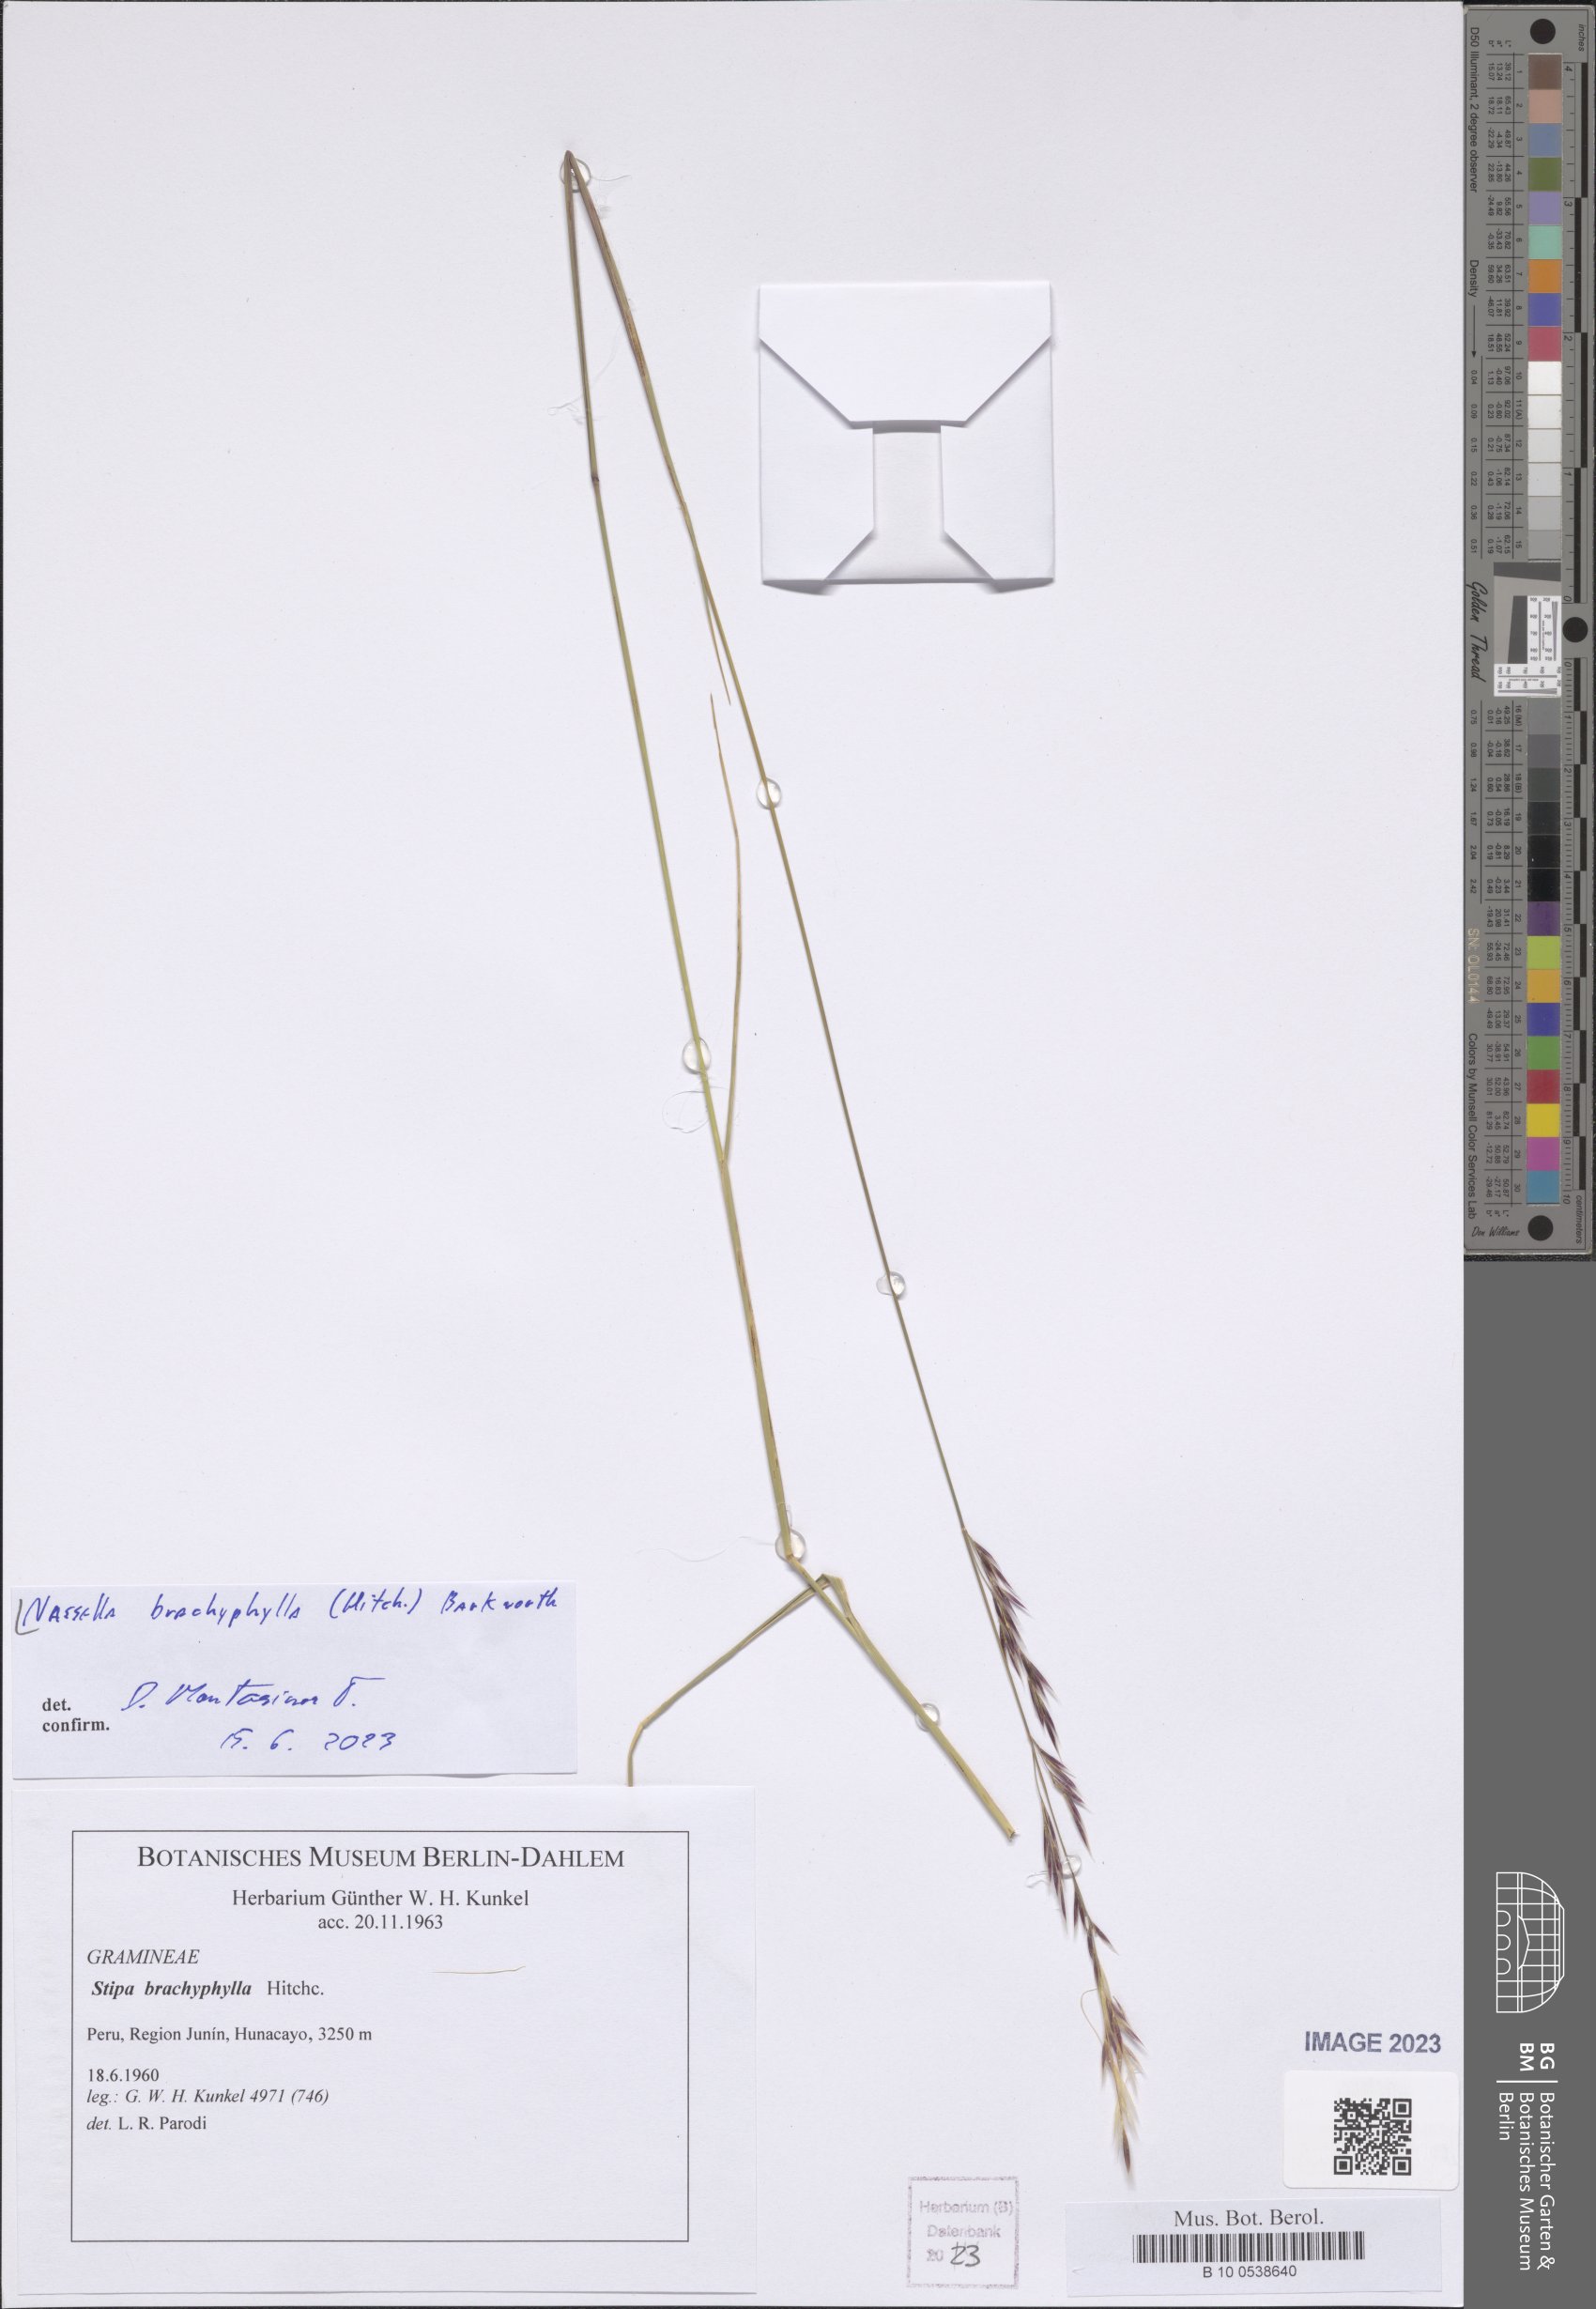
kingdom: Plantae
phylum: Tracheophyta
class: Liliopsida
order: Poales
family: Poaceae
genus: Nassella
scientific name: Nassella brachyphylla
